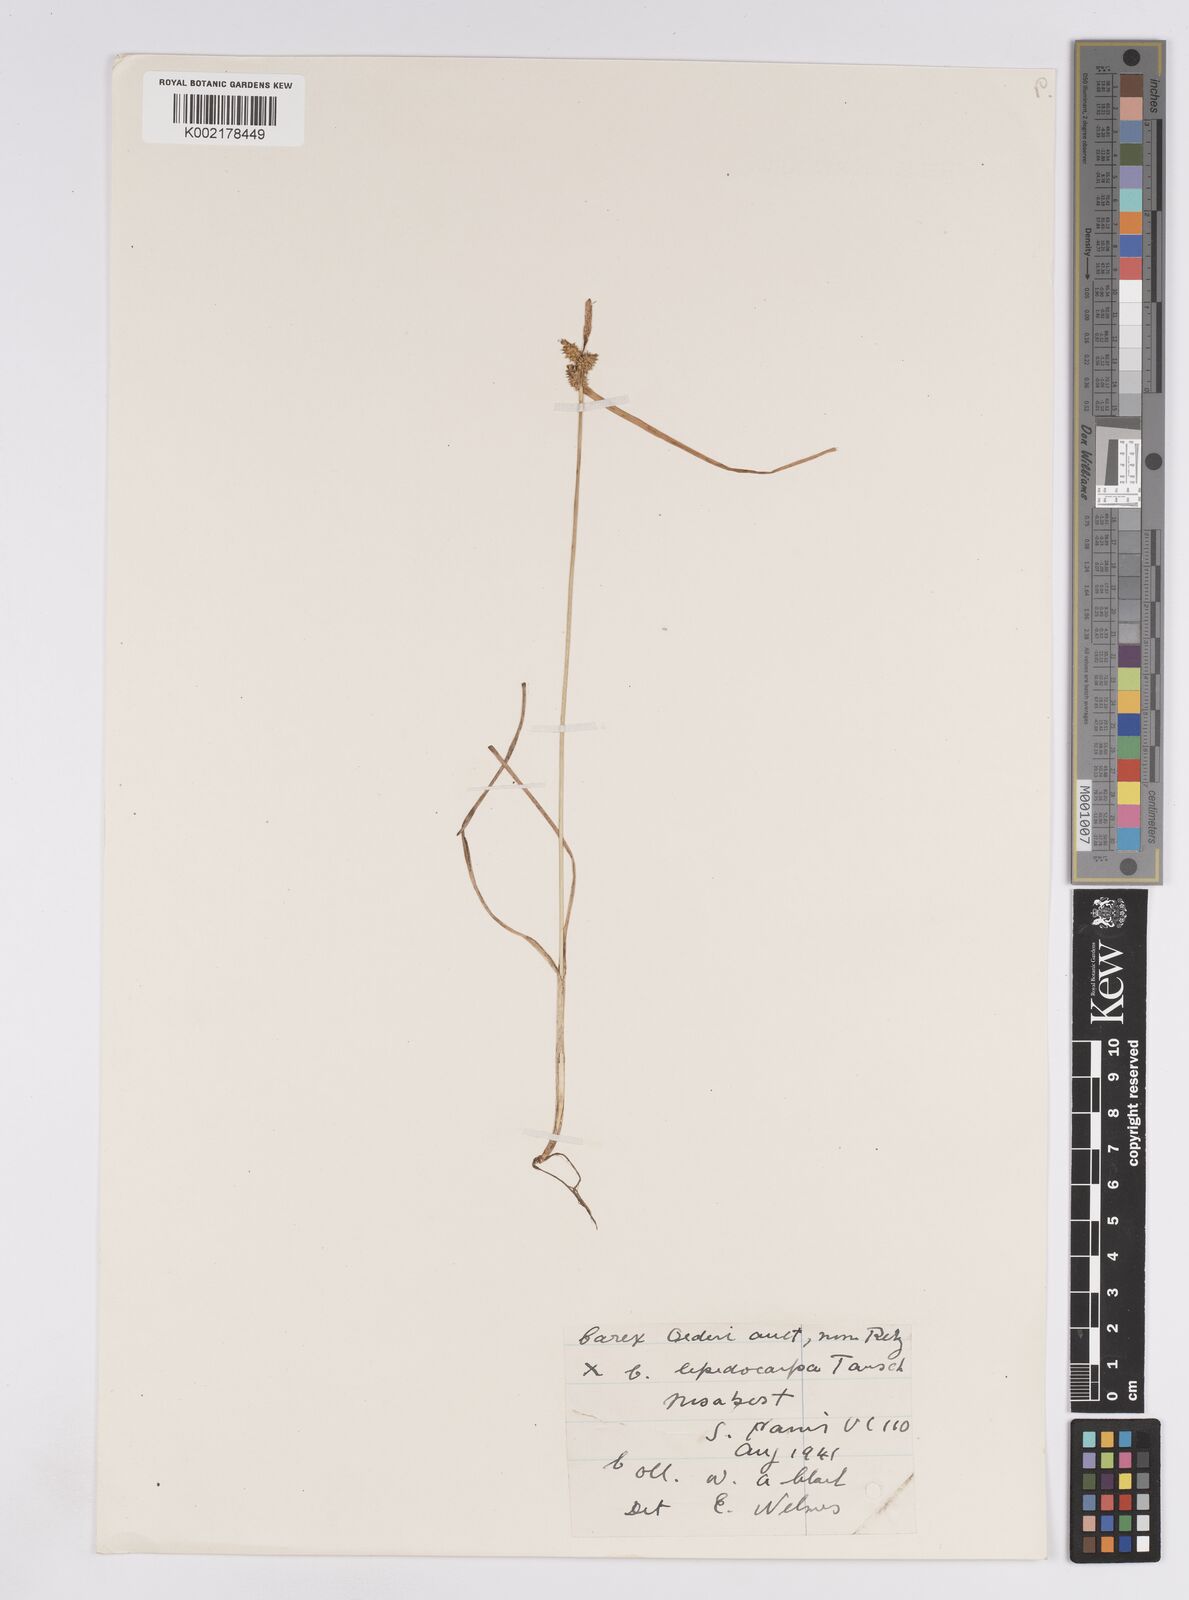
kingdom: Plantae
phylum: Tracheophyta
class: Liliopsida
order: Poales
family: Cyperaceae
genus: Carex
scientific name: Carex lepidocarpa
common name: Long-stalked yellow-sedge
